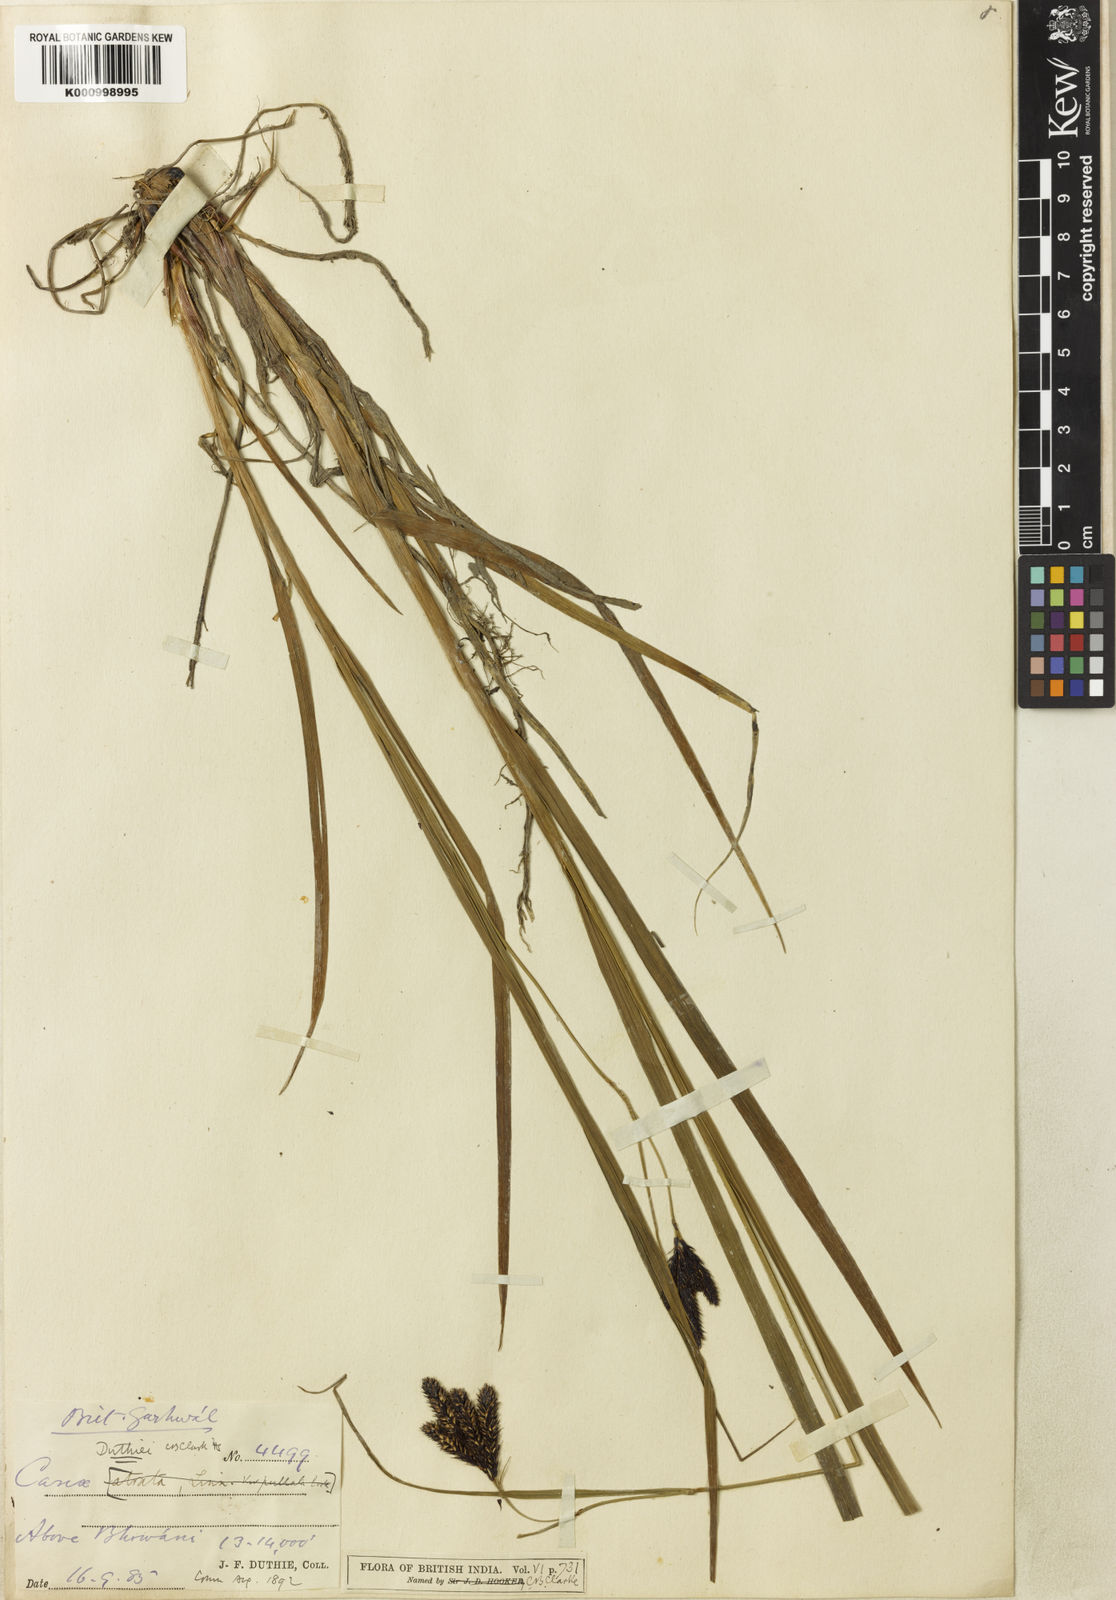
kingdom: Plantae
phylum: Tracheophyta
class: Liliopsida
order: Poales
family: Cyperaceae
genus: Carex
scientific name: Carex atrata
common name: Black alpine sedge
